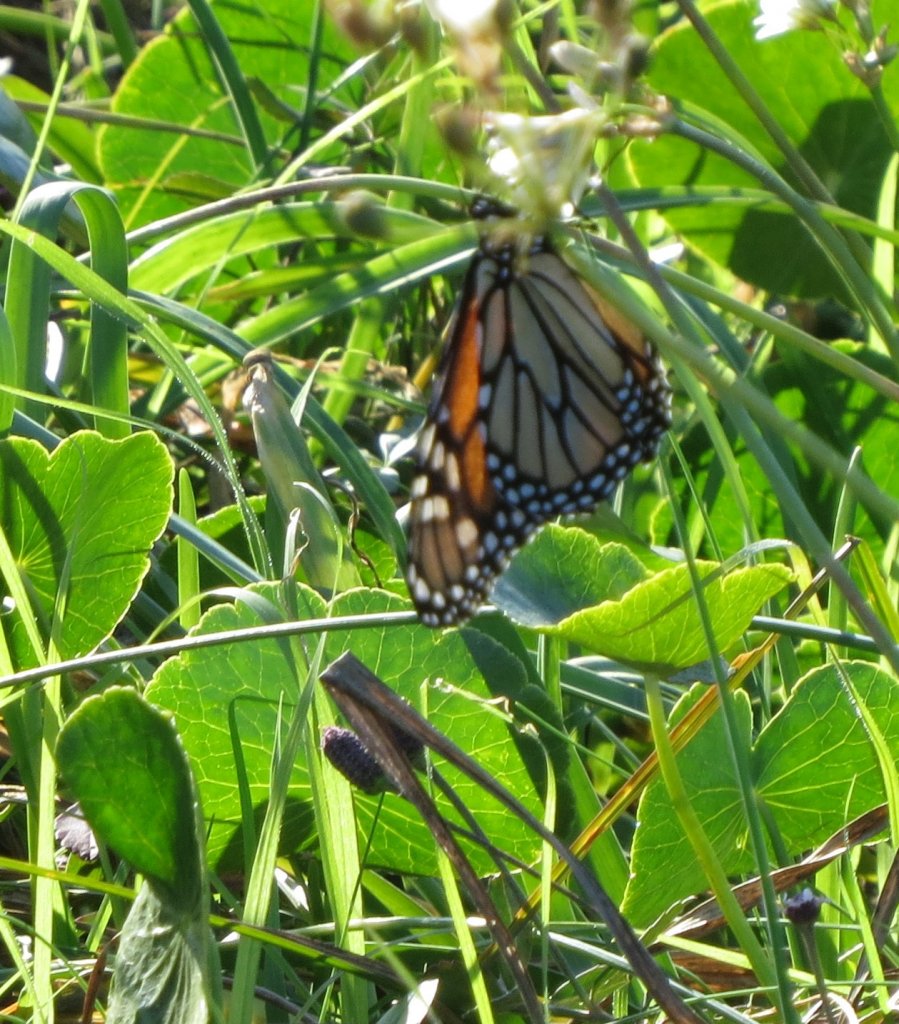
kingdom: Animalia
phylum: Arthropoda
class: Insecta
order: Lepidoptera
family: Nymphalidae
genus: Danaus
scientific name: Danaus plexippus
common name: Monarch
